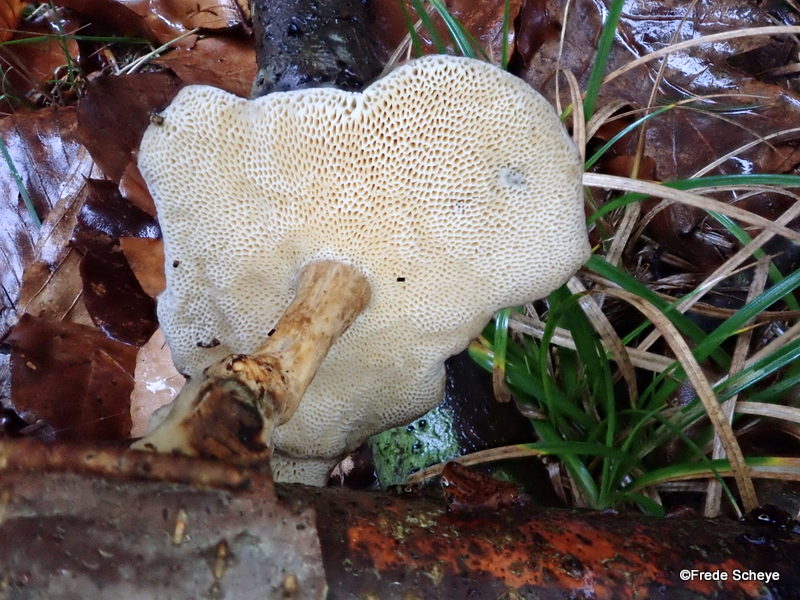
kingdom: Fungi
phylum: Basidiomycota
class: Agaricomycetes
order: Polyporales
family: Polyporaceae
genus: Lentinus
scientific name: Lentinus brumalis
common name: vinter-stilkporesvamp
